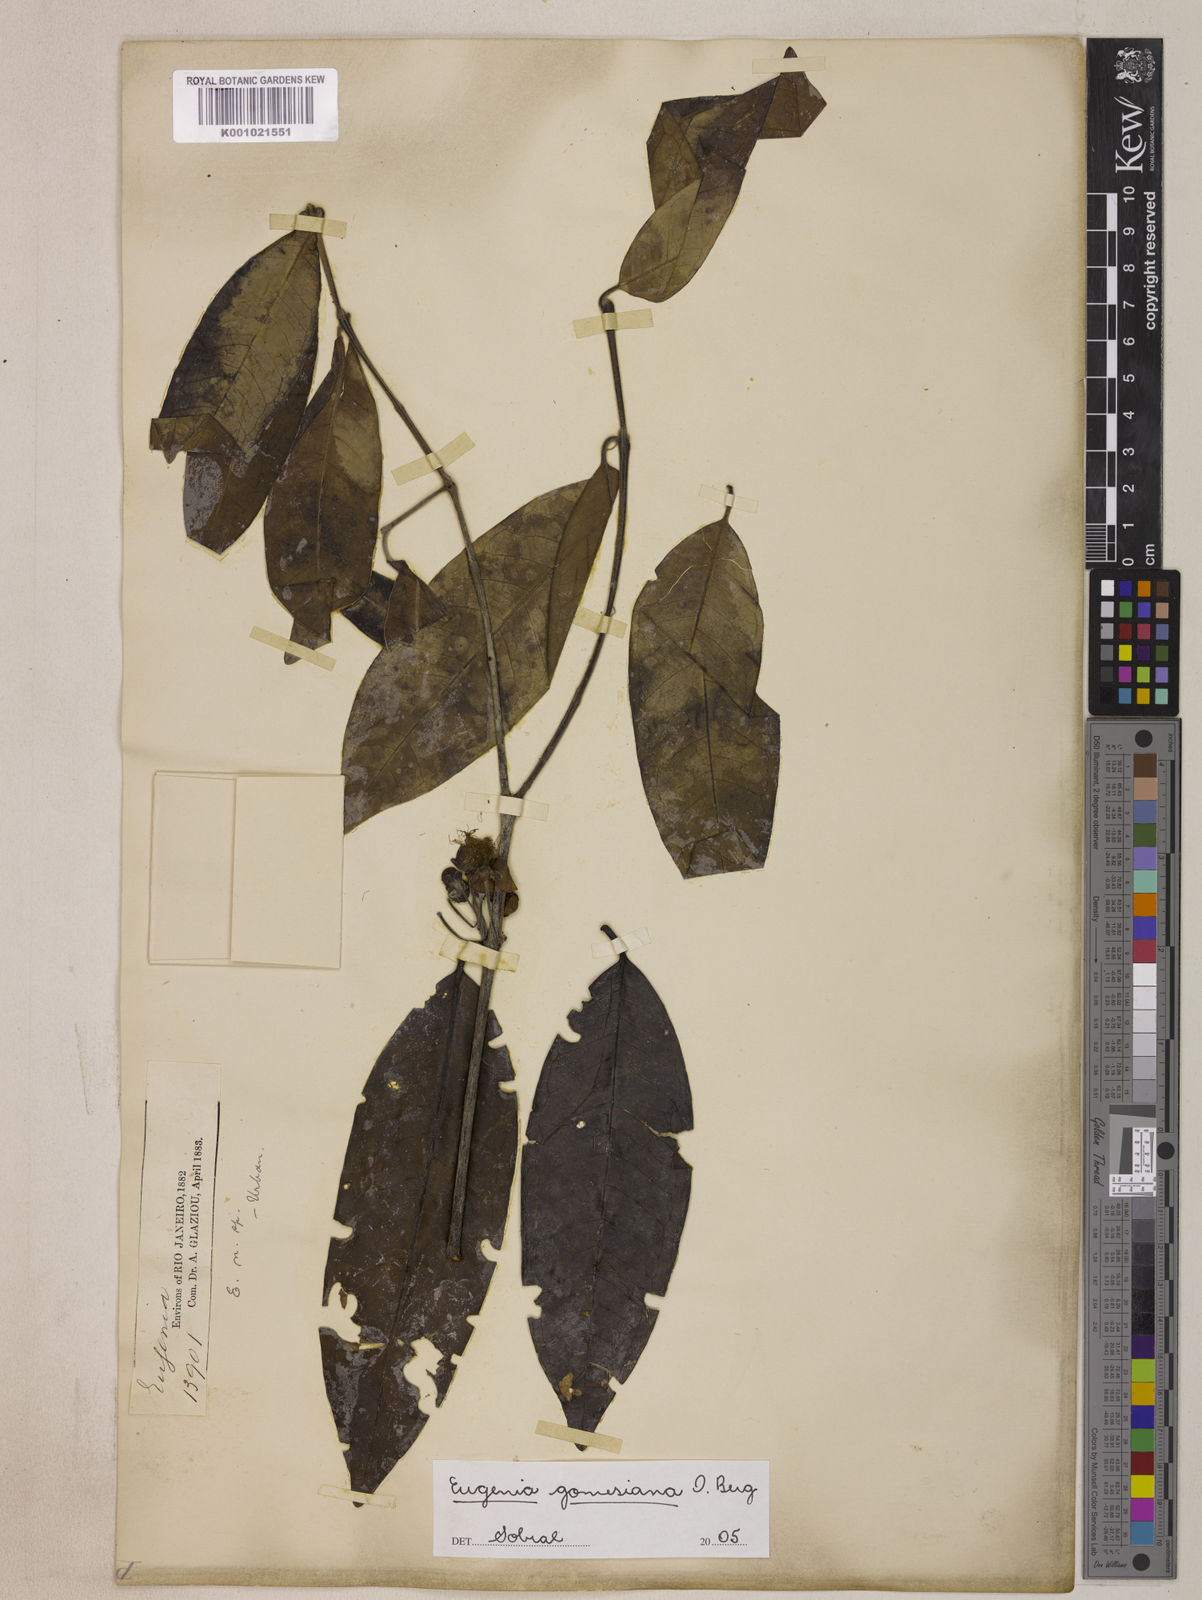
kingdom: Plantae
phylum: Tracheophyta
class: Magnoliopsida
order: Myrtales
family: Myrtaceae
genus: Eugenia
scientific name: Eugenia gomesiana
